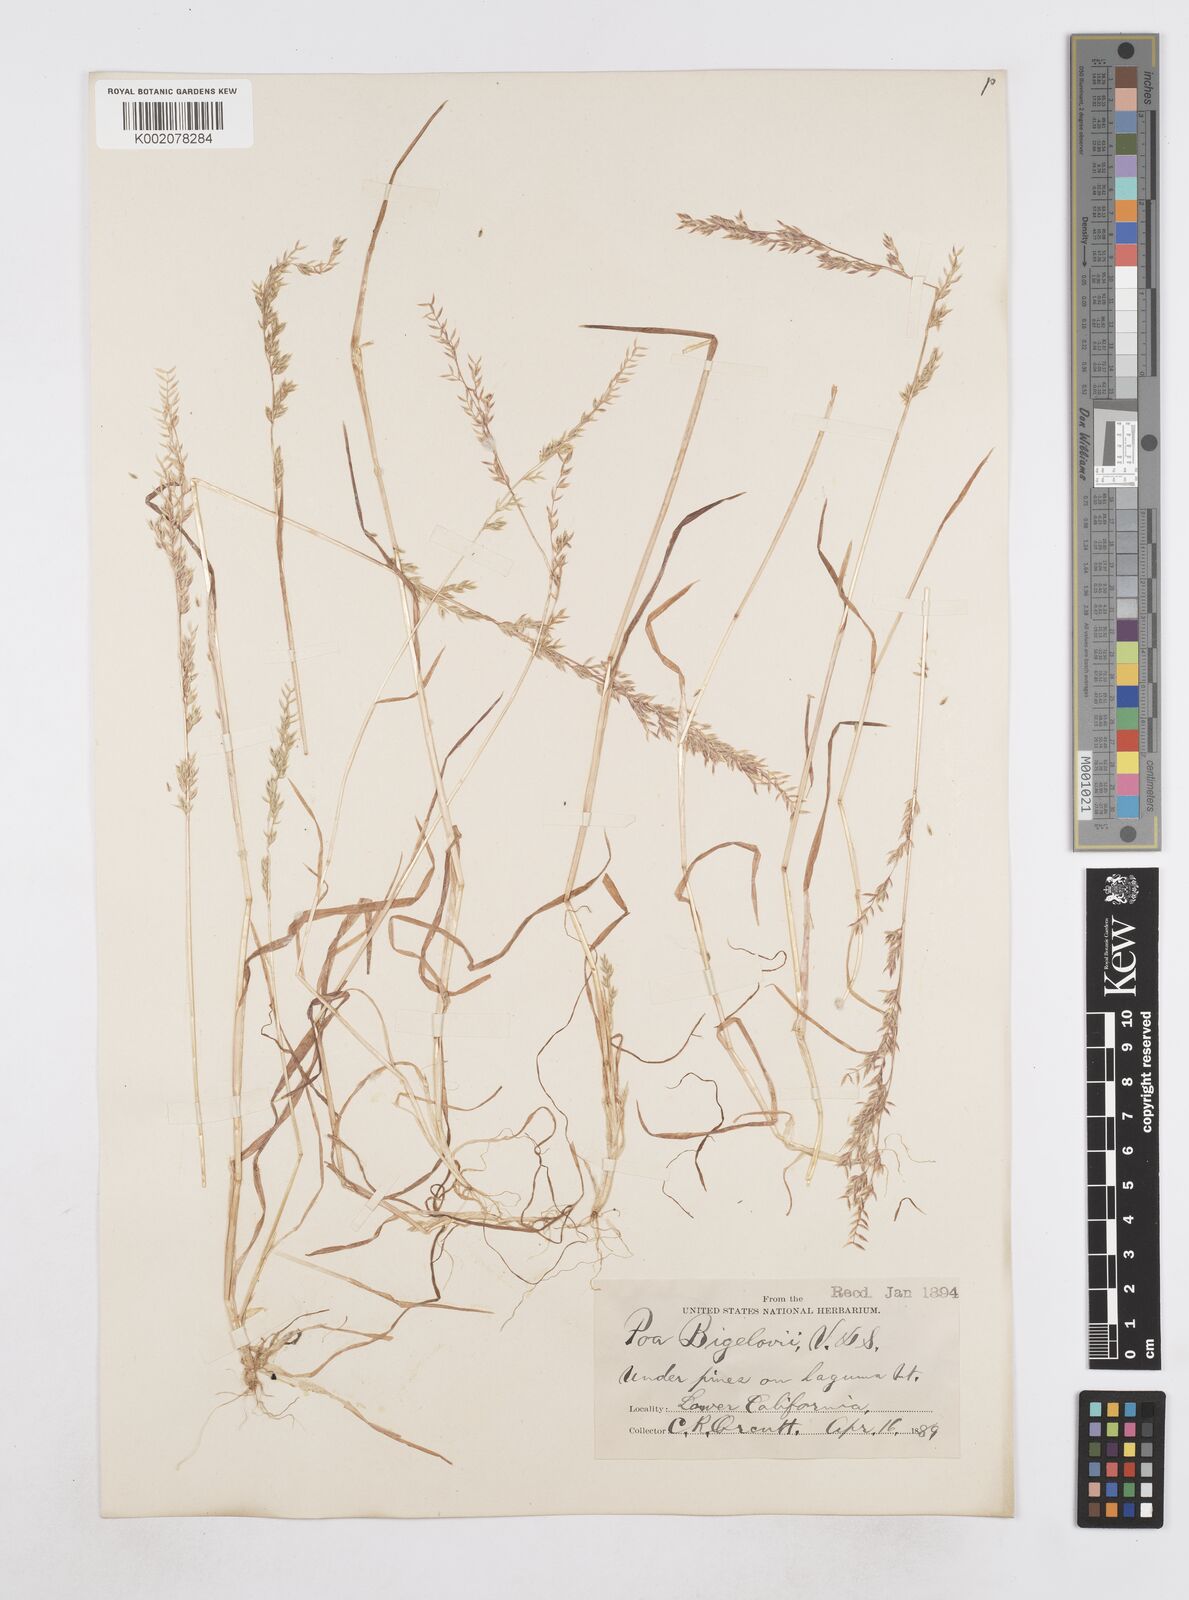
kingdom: Plantae
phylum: Tracheophyta
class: Liliopsida
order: Poales
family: Poaceae
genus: Poa
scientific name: Poa bigelovii
